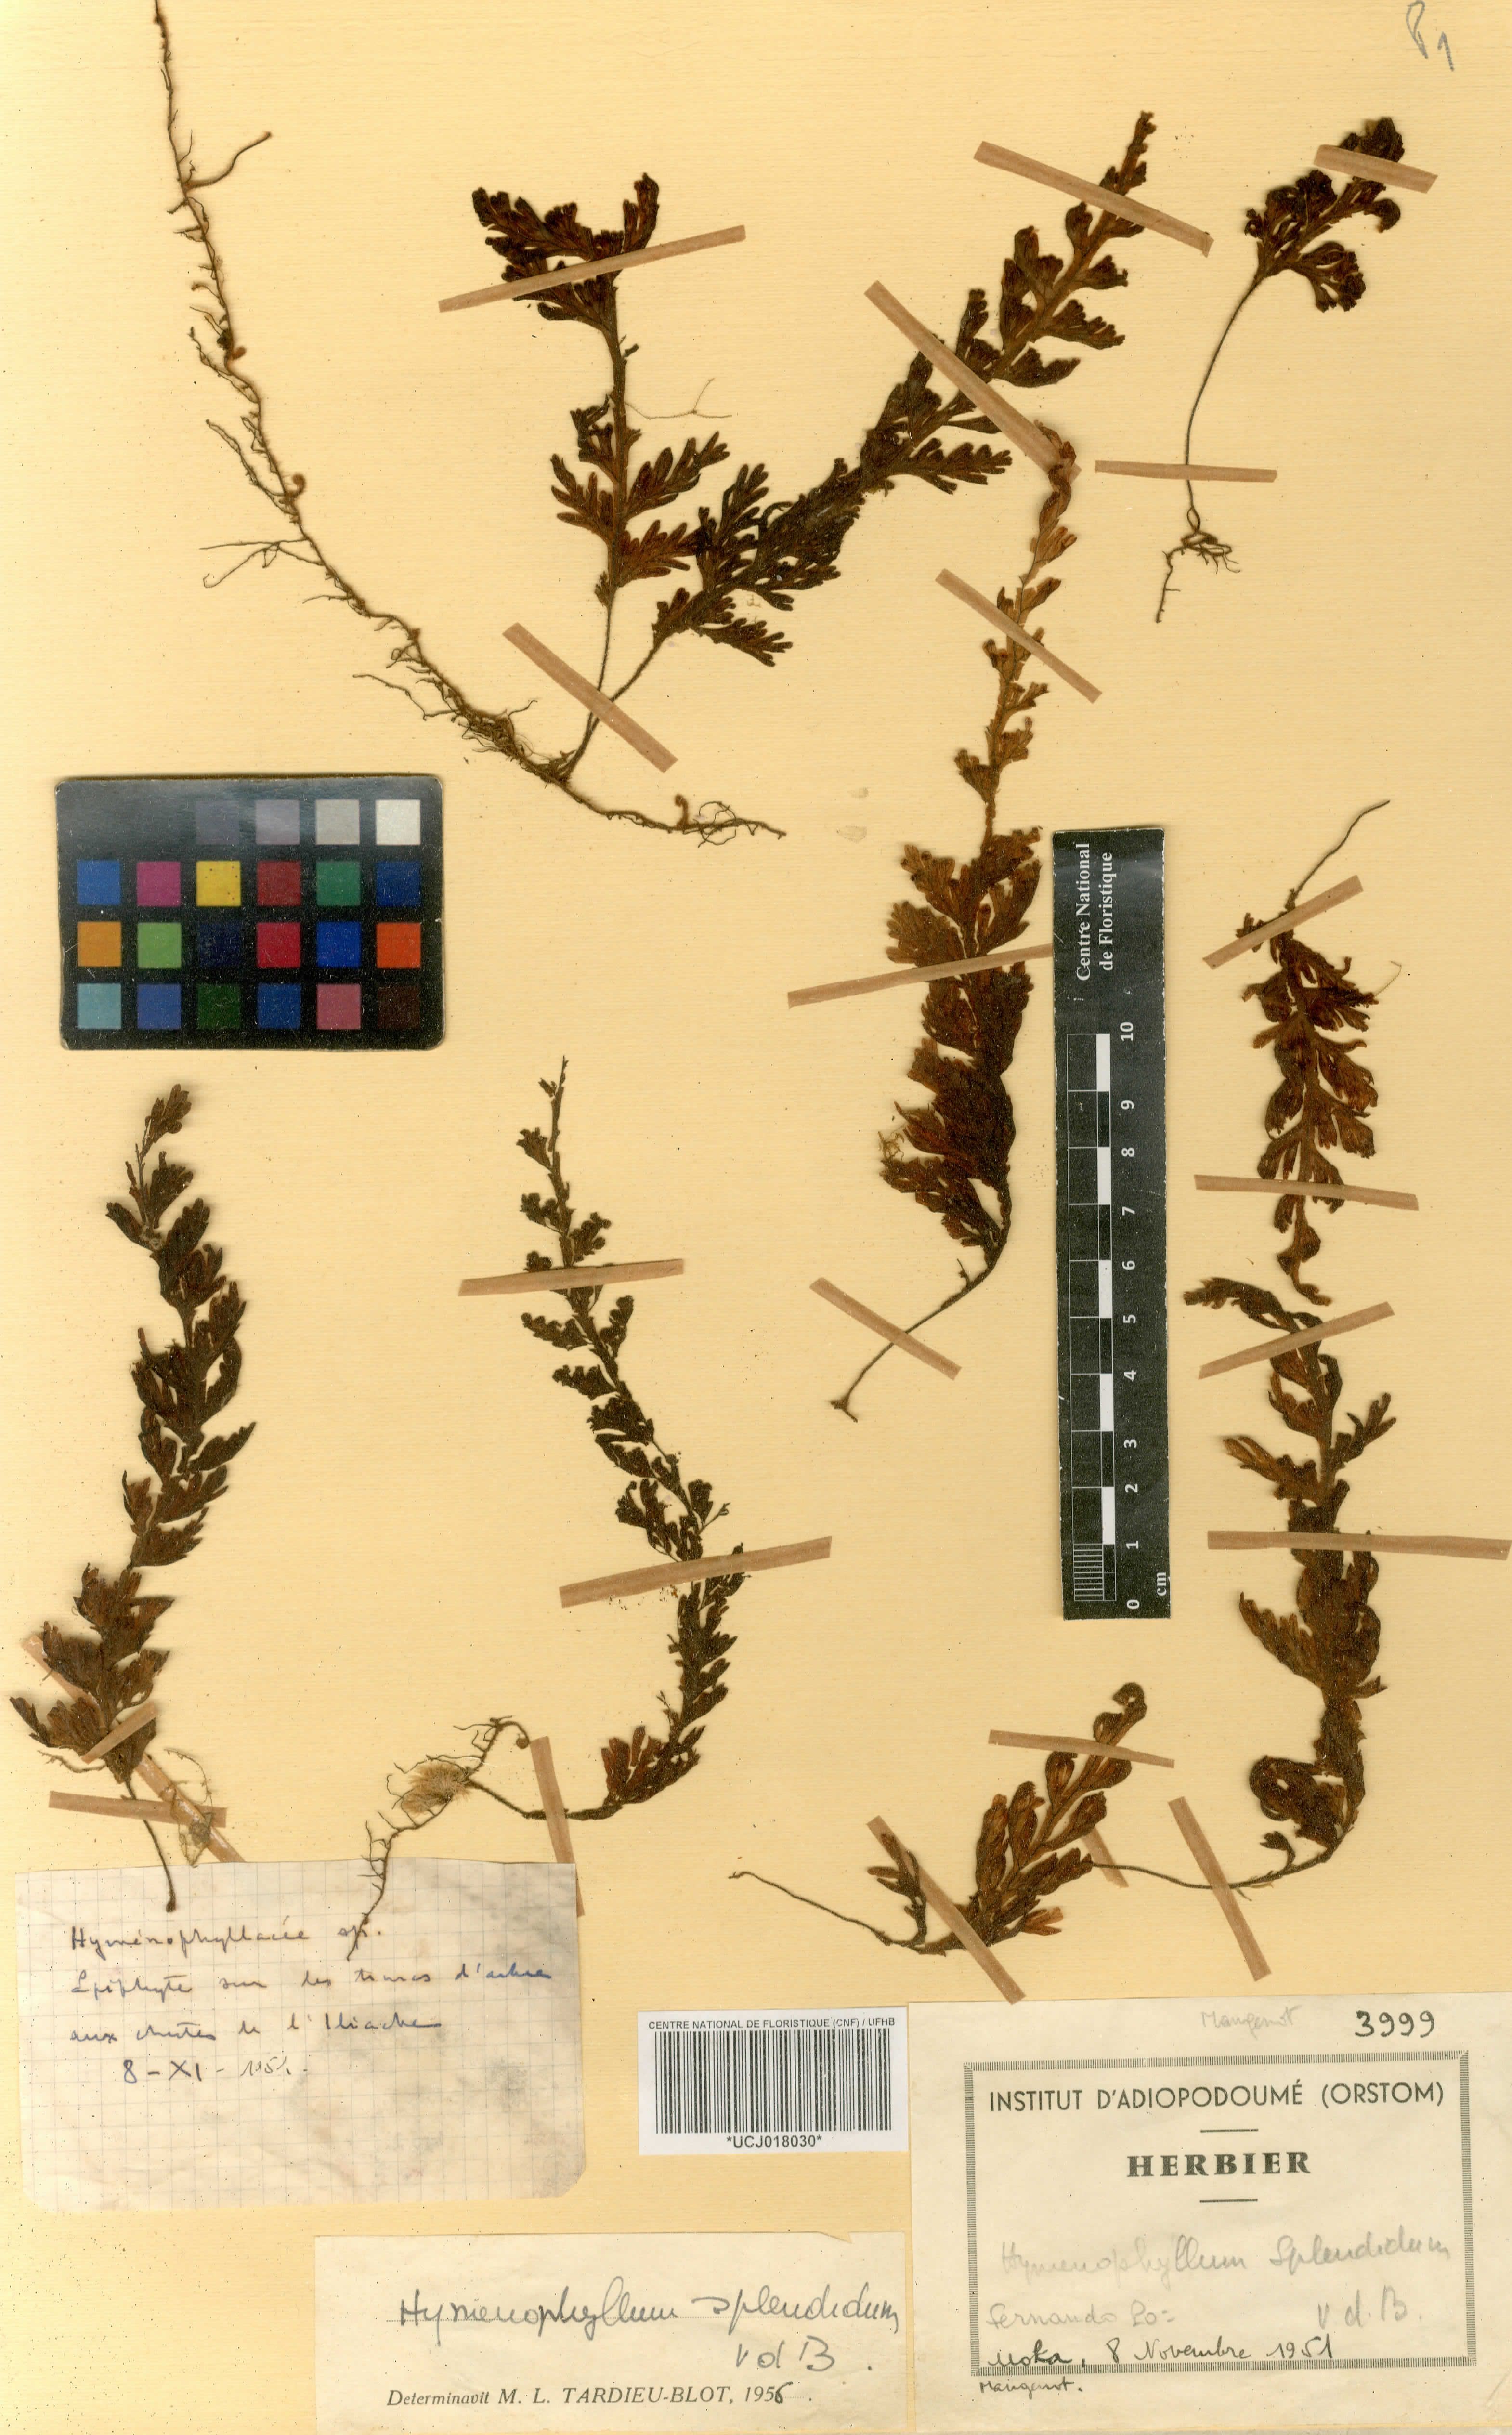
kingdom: Plantae
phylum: Tracheophyta
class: Polypodiopsida
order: Hymenophyllales
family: Hymenophyllaceae
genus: Hymenophyllum
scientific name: Hymenophyllum splendidum
